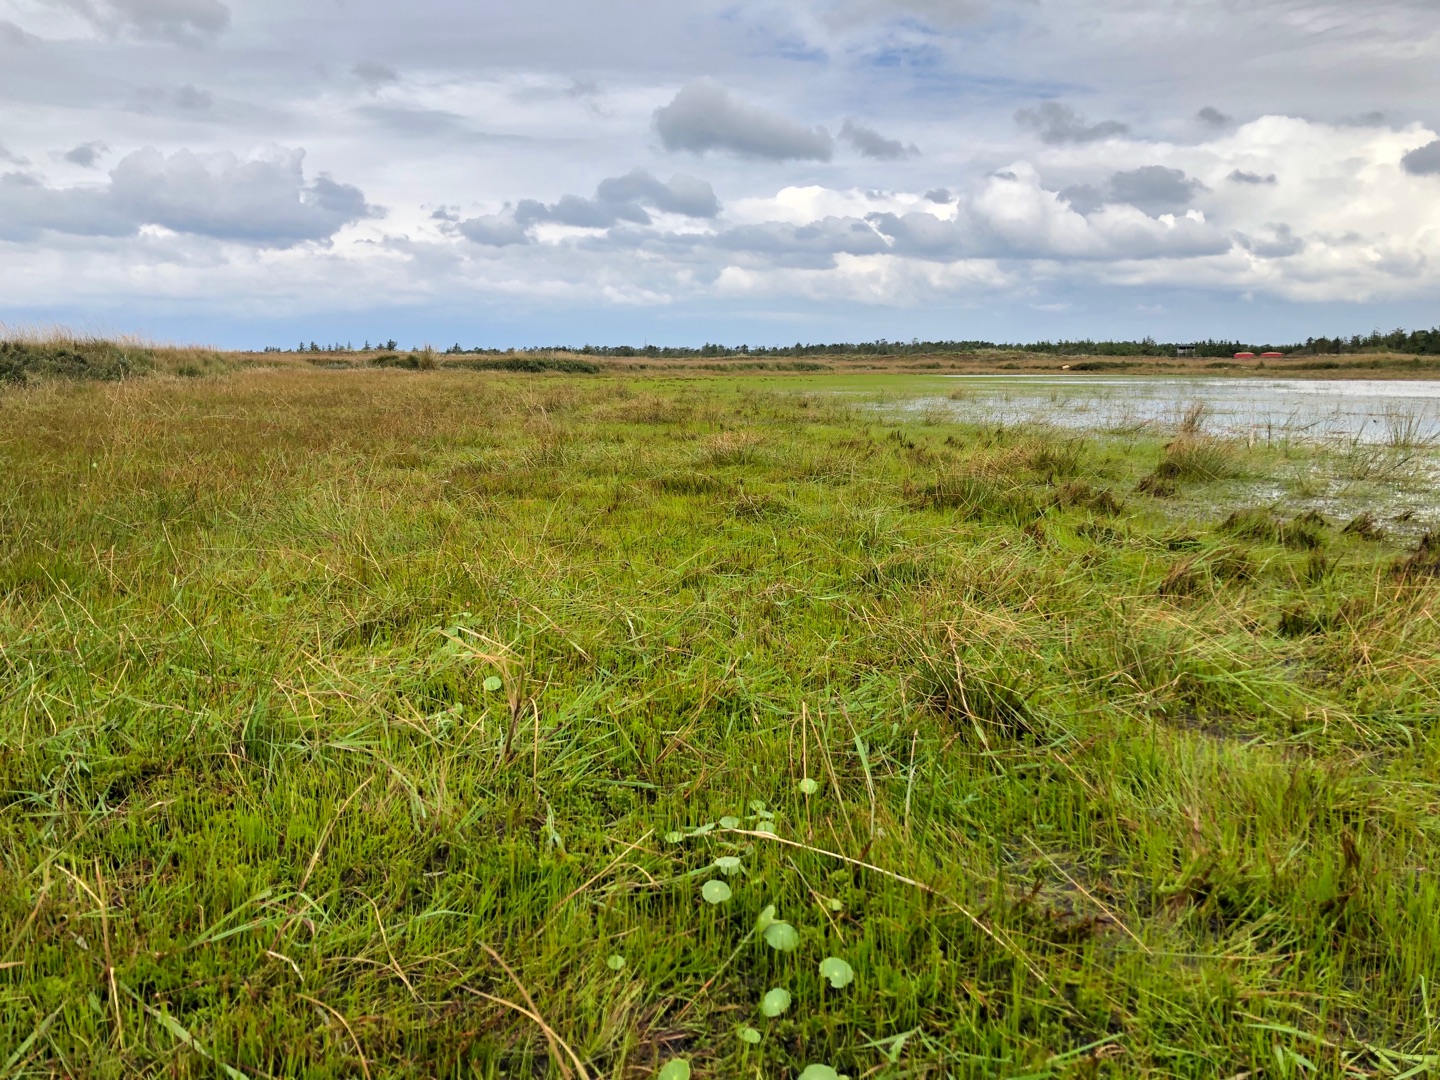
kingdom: Plantae
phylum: Tracheophyta
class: Polypodiopsida
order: Salviniales
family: Marsileaceae
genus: Pilularia
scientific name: Pilularia globulifera
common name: Pilledrager
